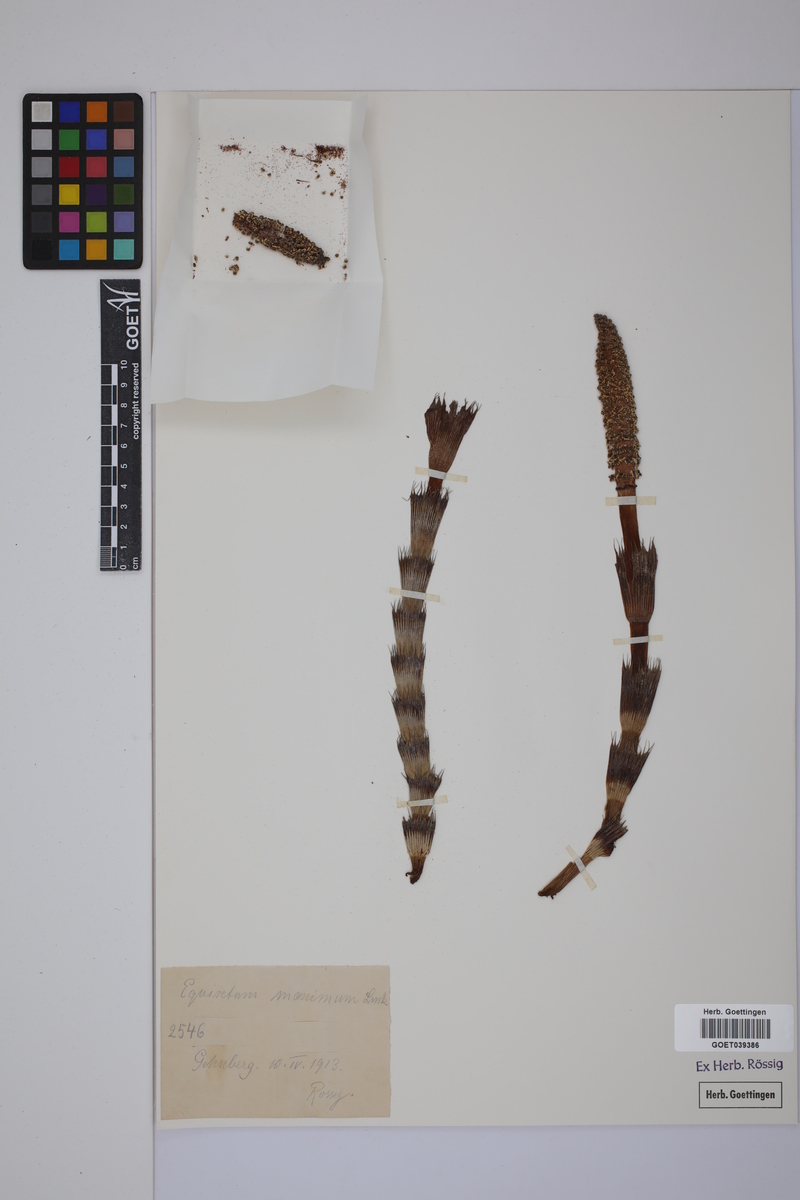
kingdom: Plantae
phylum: Tracheophyta
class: Polypodiopsida
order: Equisetales
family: Equisetaceae
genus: Equisetum
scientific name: Equisetum telmateia
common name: Great horsetail
